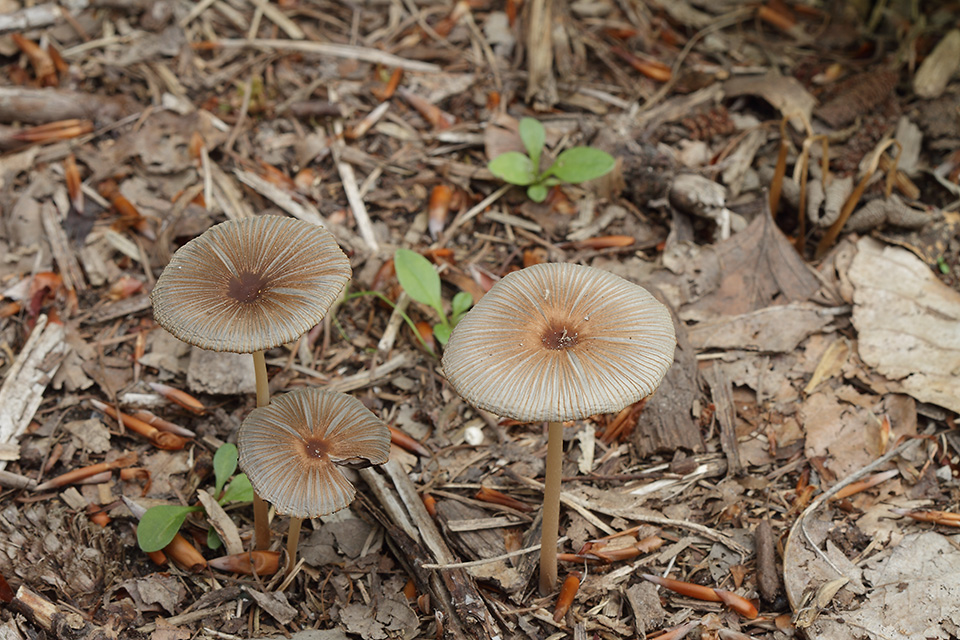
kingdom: Fungi
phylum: Basidiomycota
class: Agaricomycetes
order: Agaricales
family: Psathyrellaceae
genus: Parasola
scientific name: Parasola auricoma
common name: hansens hjulhat
